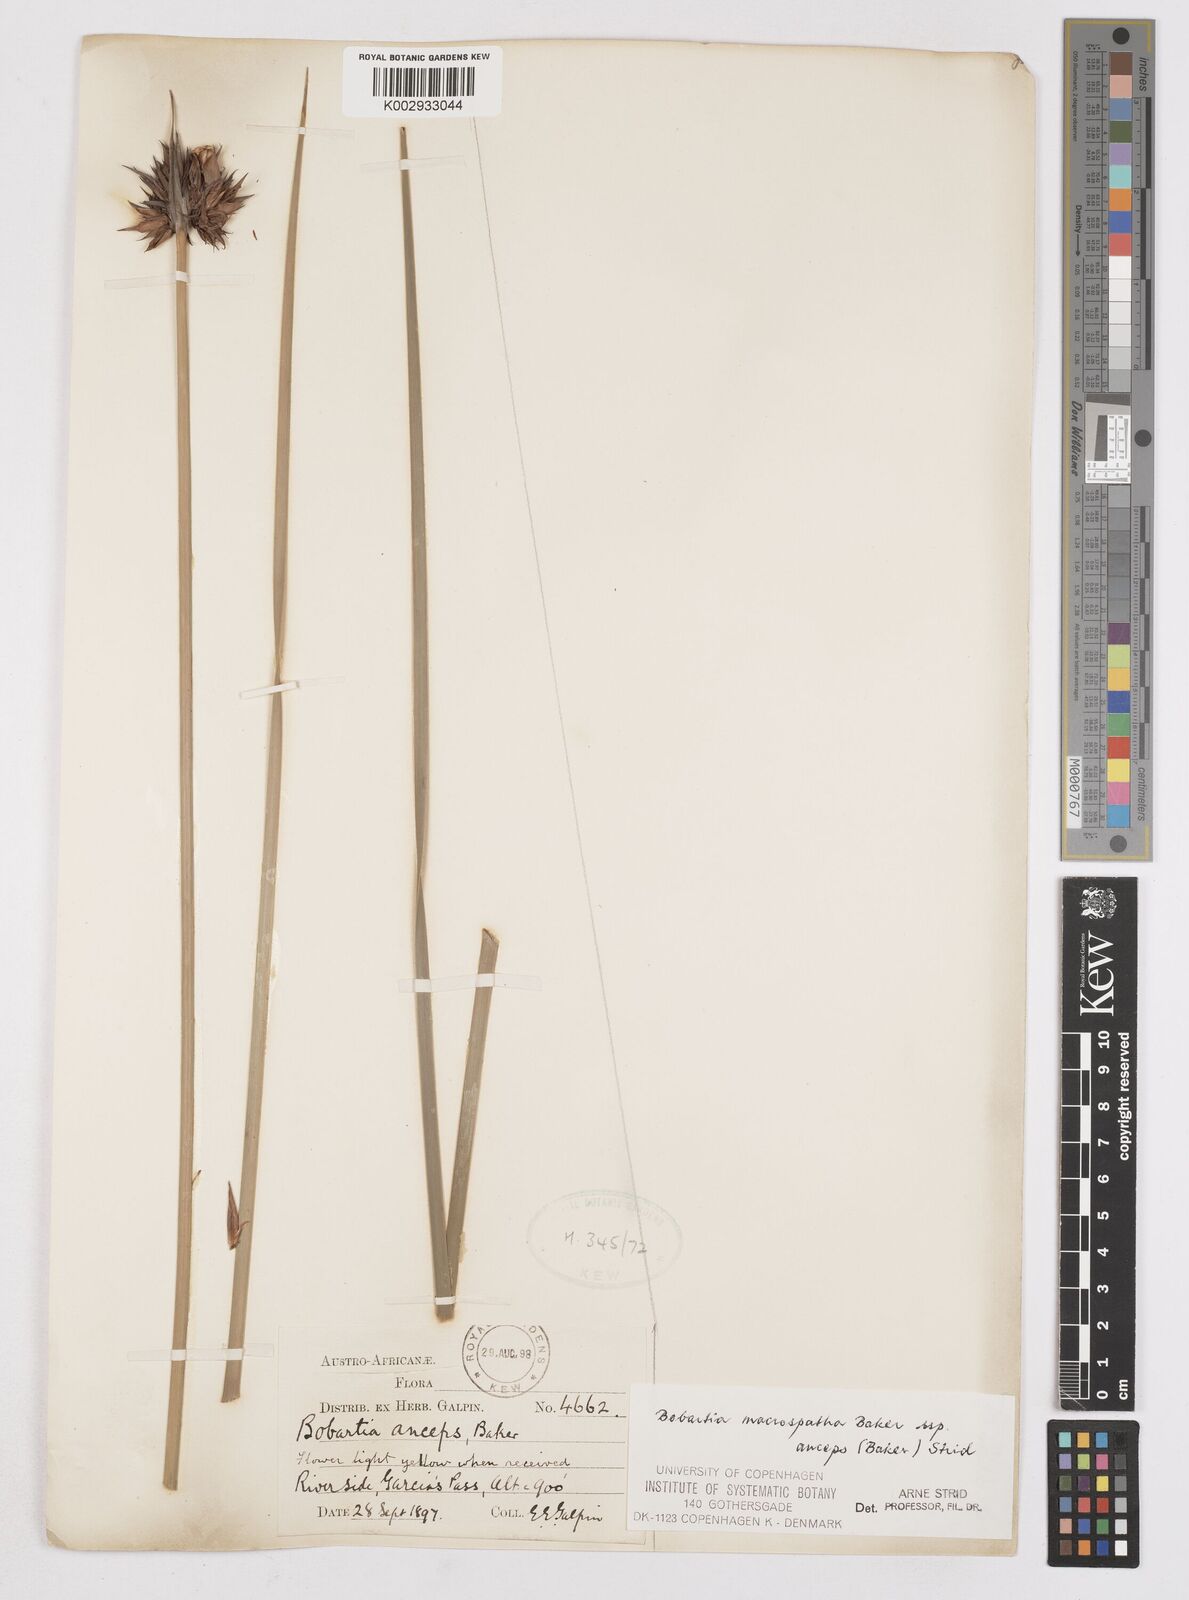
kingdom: Plantae
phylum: Tracheophyta
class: Liliopsida
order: Asparagales
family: Iridaceae
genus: Bobartia
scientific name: Bobartia macrospatha
